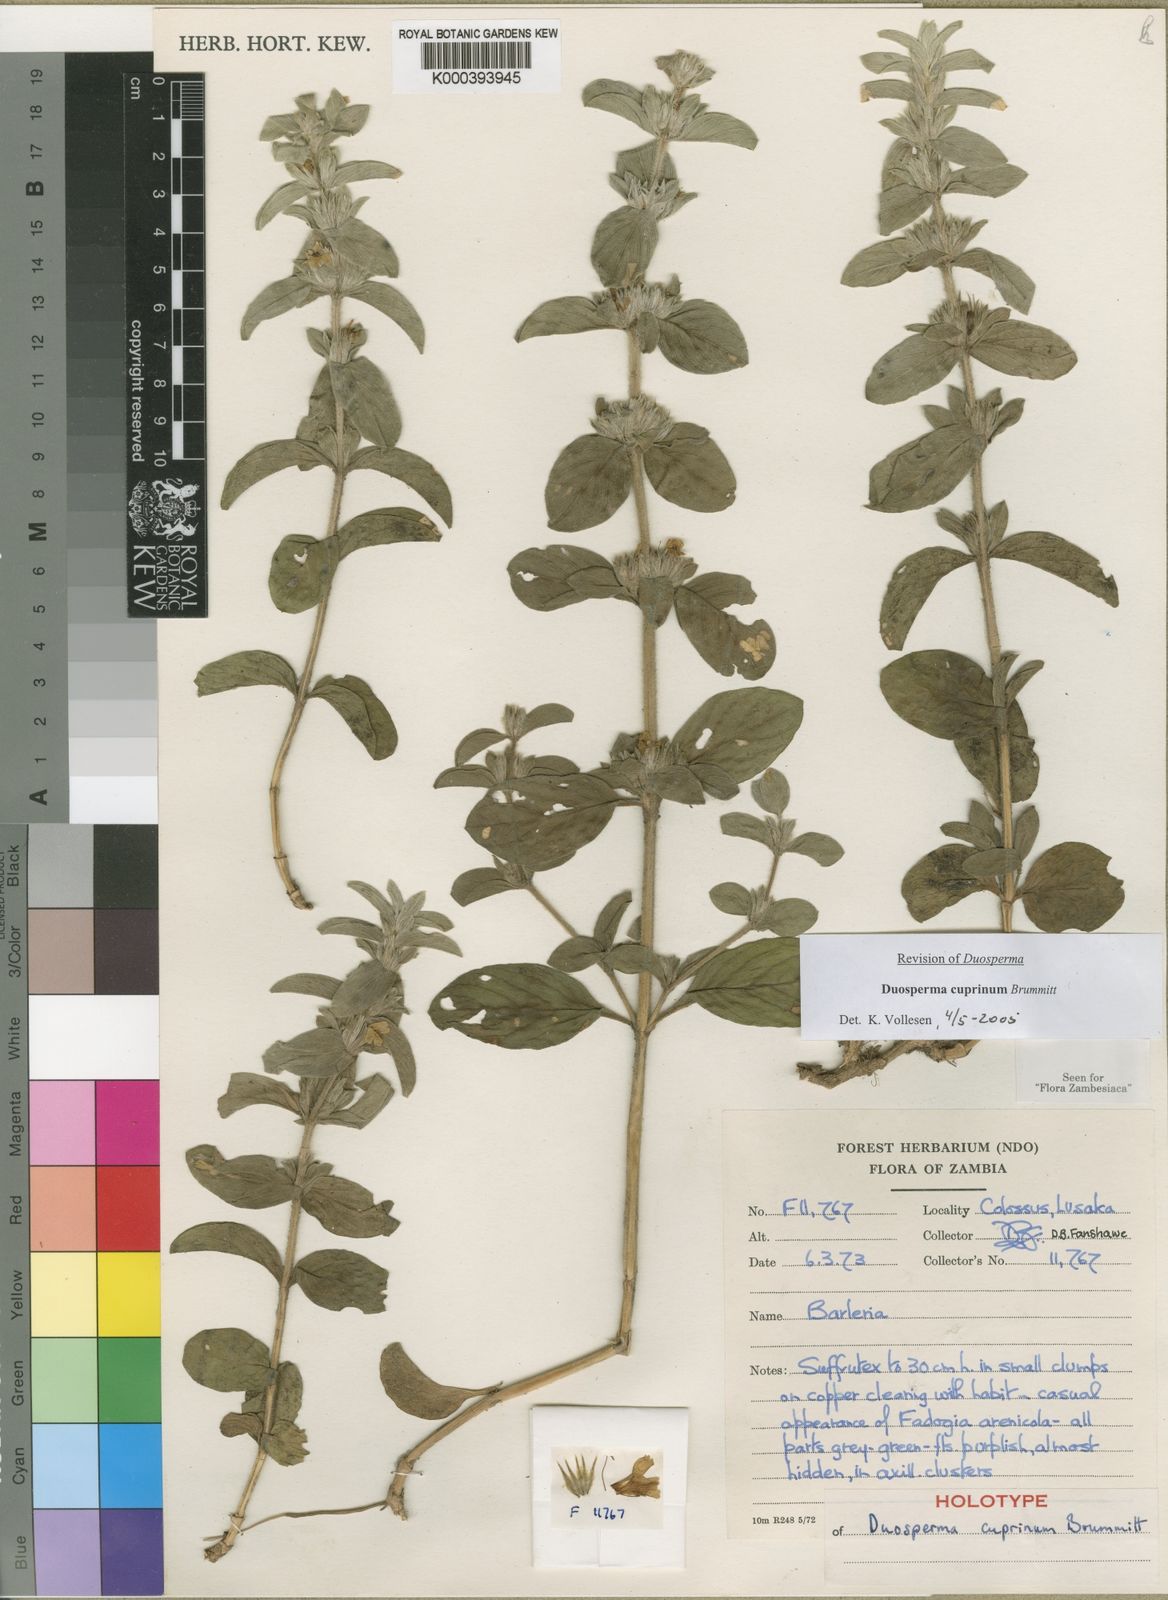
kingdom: Plantae
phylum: Tracheophyta
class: Magnoliopsida
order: Lamiales
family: Acanthaceae
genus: Duosperma
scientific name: Duosperma cuprinum
